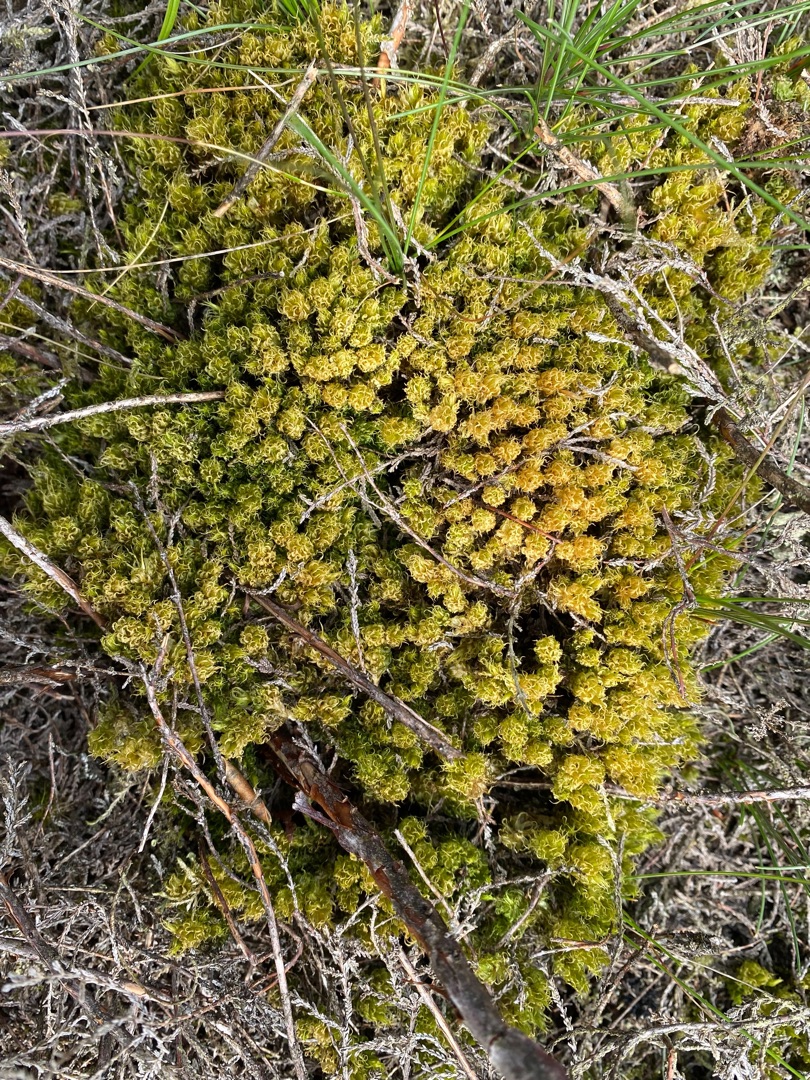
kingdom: Plantae
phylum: Bryophyta
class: Bryopsida
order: Dicranales
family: Dicranaceae
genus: Dicranum
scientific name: Dicranum spurium
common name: Hede-kløvtand
